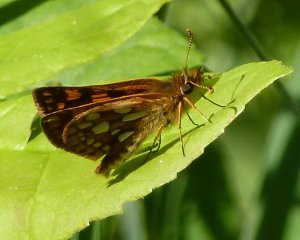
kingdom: Animalia
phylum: Arthropoda
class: Insecta
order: Lepidoptera
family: Hesperiidae
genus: Carterocephalus
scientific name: Carterocephalus palaemon
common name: Chequered Skipper
